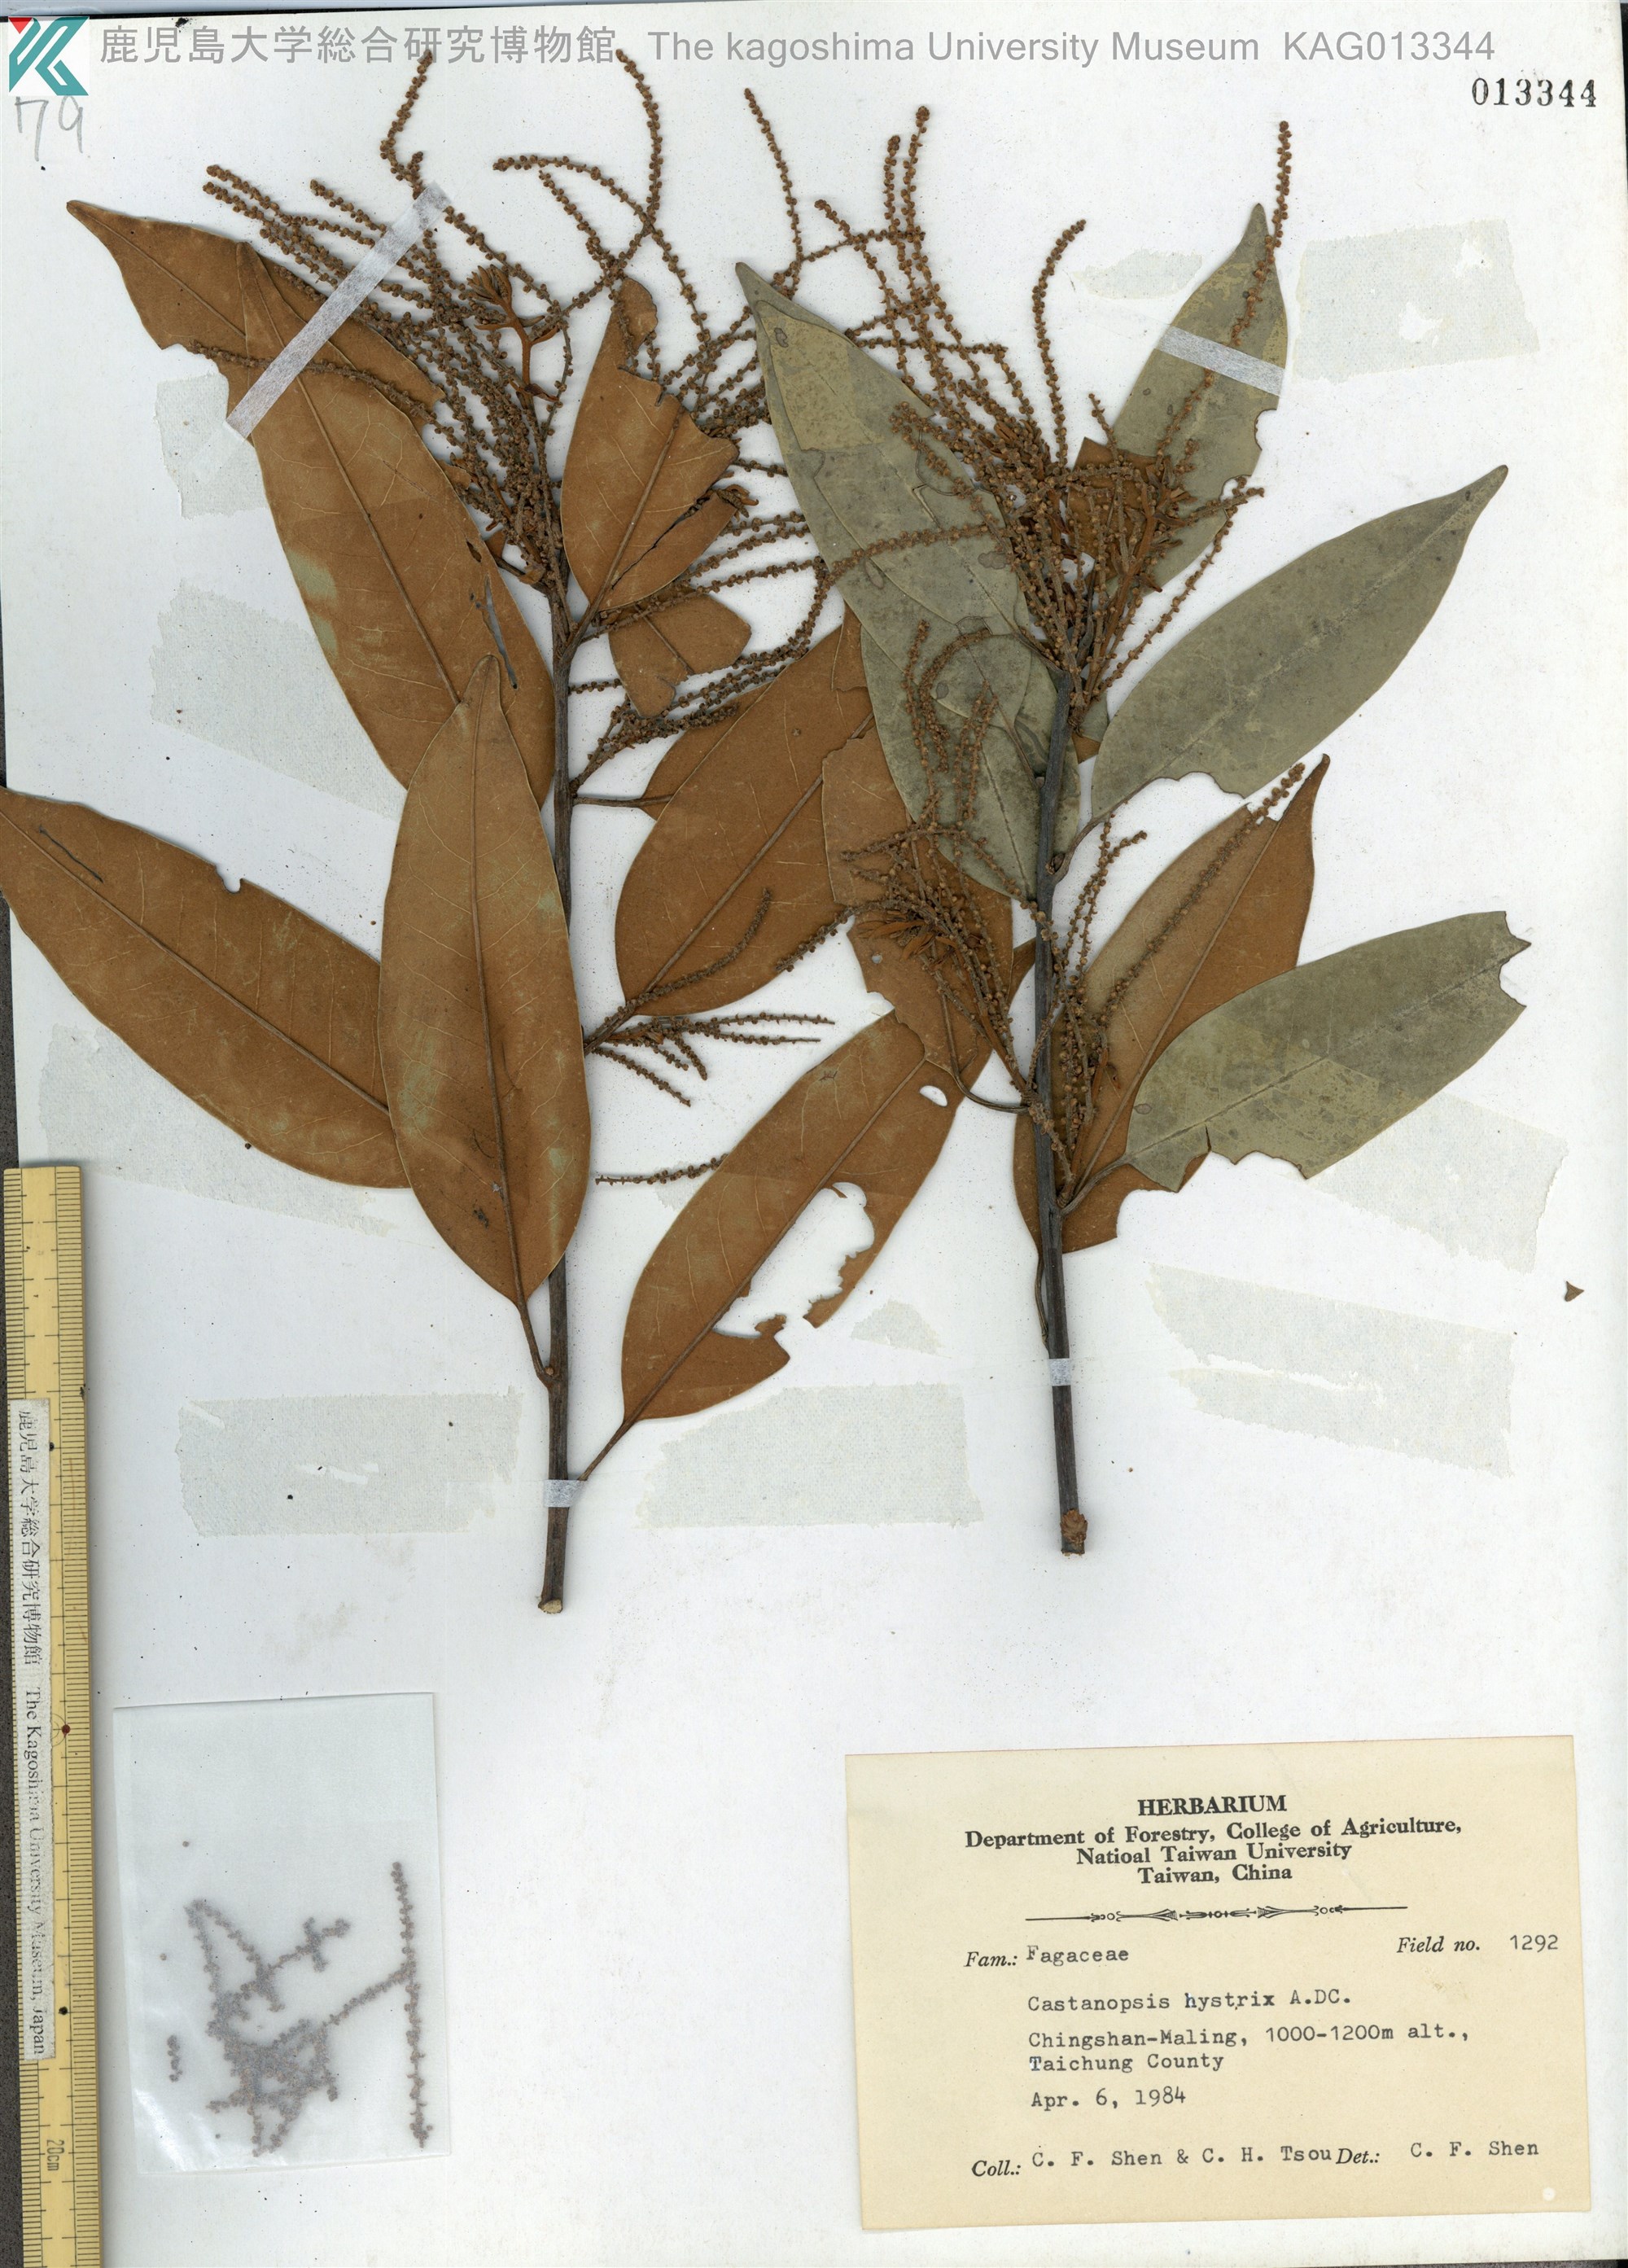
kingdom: Plantae
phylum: Tracheophyta
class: Magnoliopsida
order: Fagales
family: Fagaceae
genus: Castanopsis
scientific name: Castanopsis hystrix
